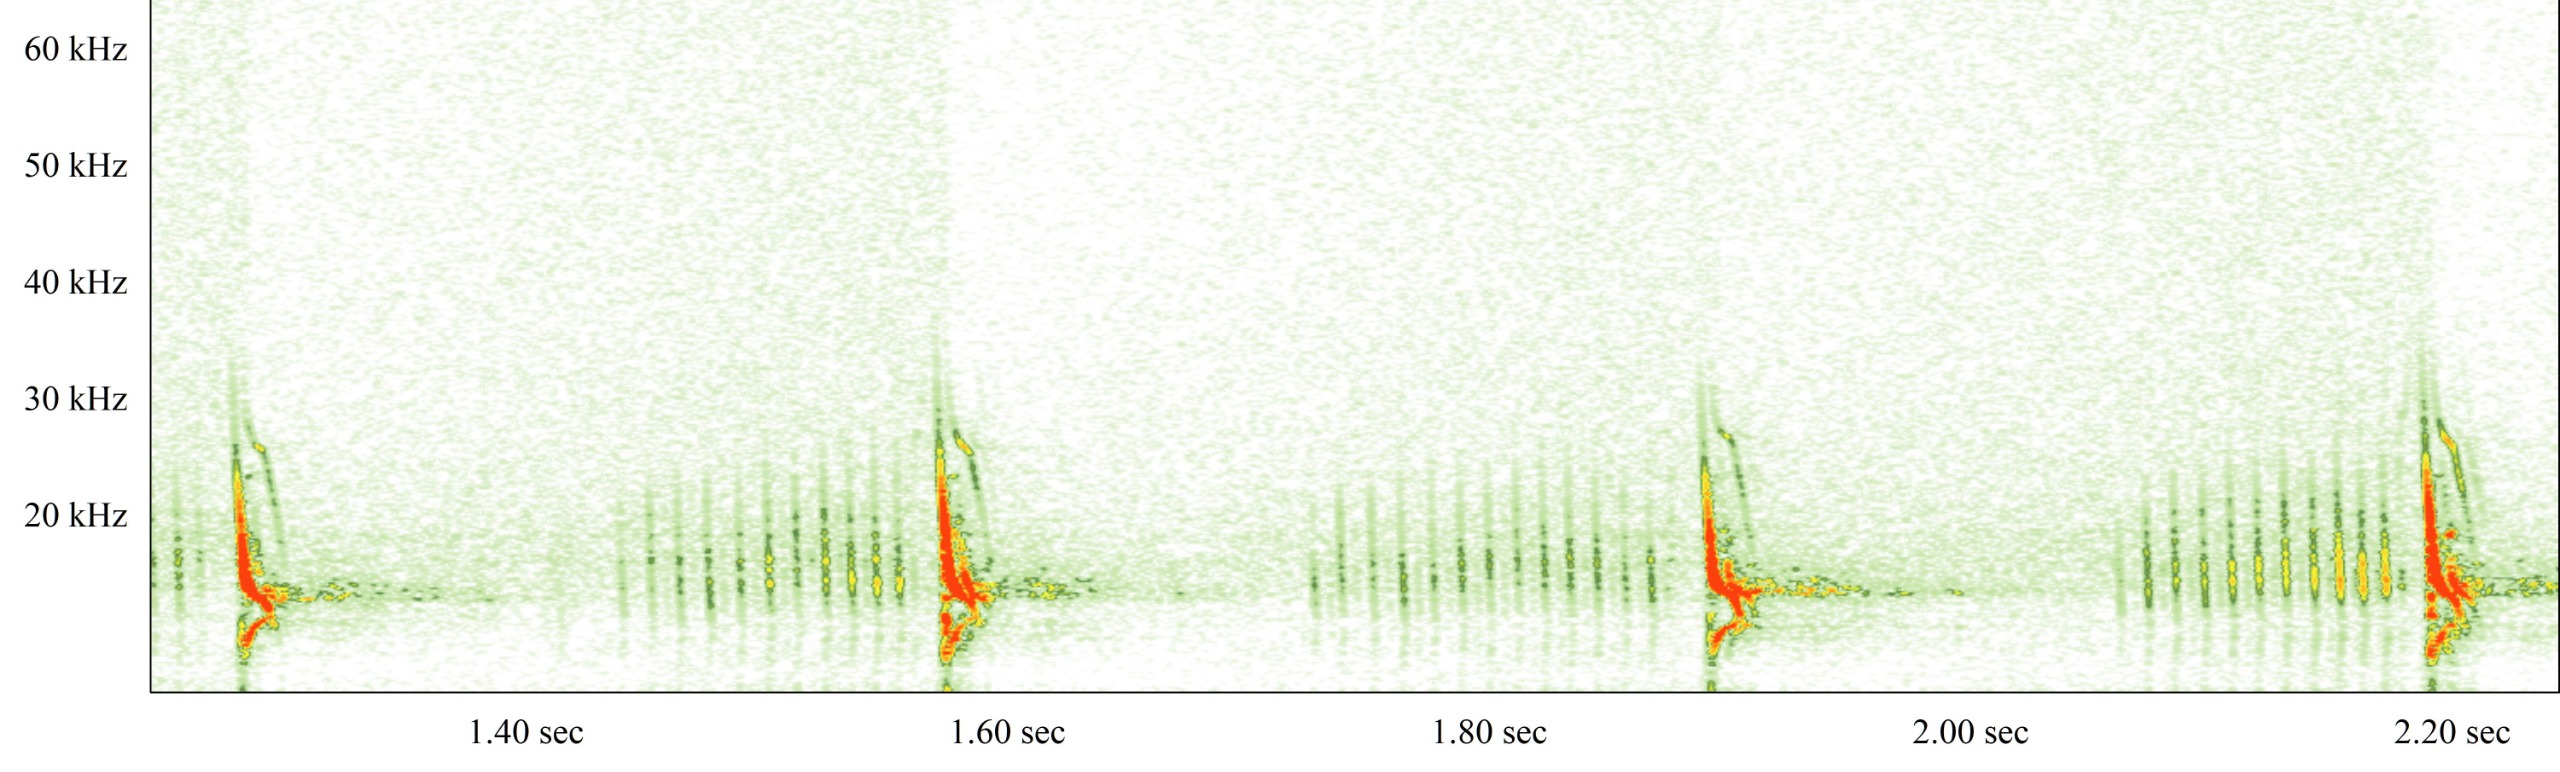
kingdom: Animalia
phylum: Chordata
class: Mammalia
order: Chiroptera
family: Vespertilionidae
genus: Vespertilio
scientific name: Vespertilio murinus
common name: Skimmelflagermus
